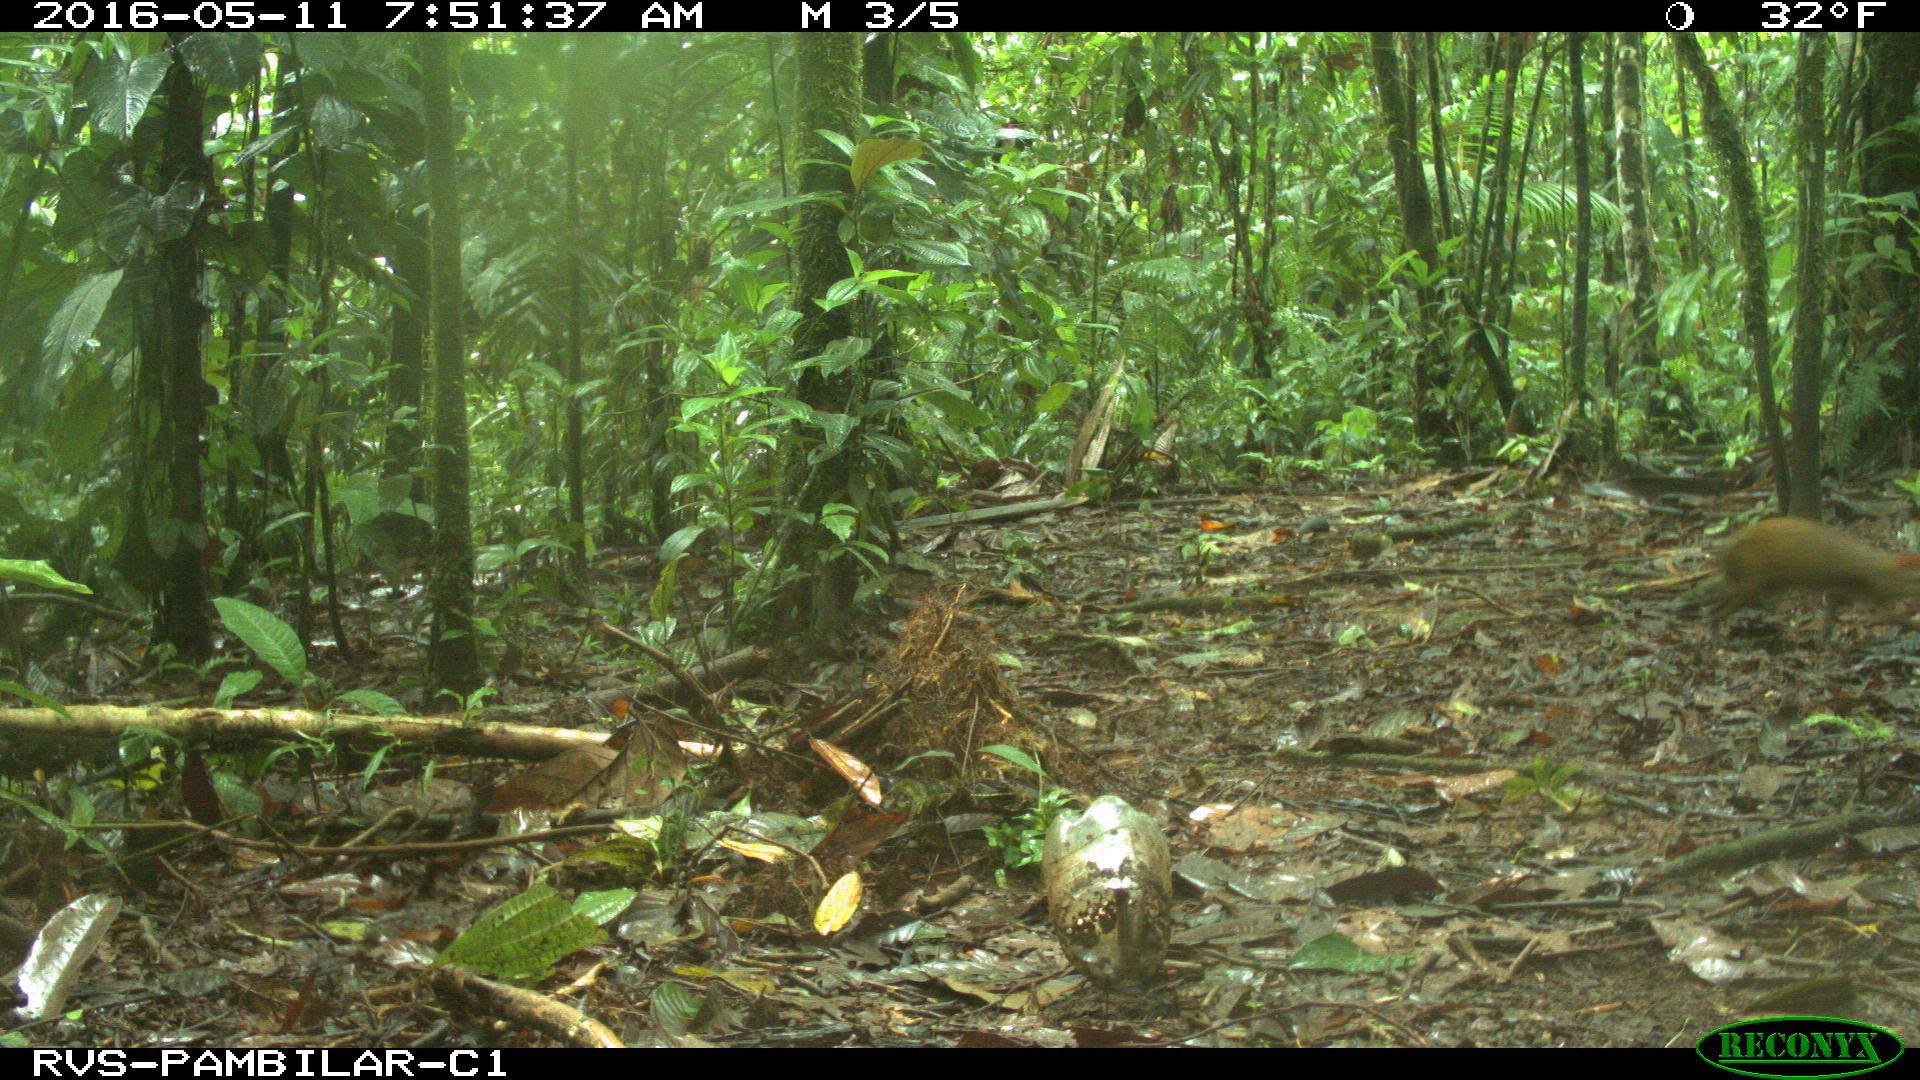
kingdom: Animalia
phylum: Chordata
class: Mammalia
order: Rodentia
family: Dasyproctidae
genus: Dasyprocta
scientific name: Dasyprocta punctata
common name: Central american agouti
